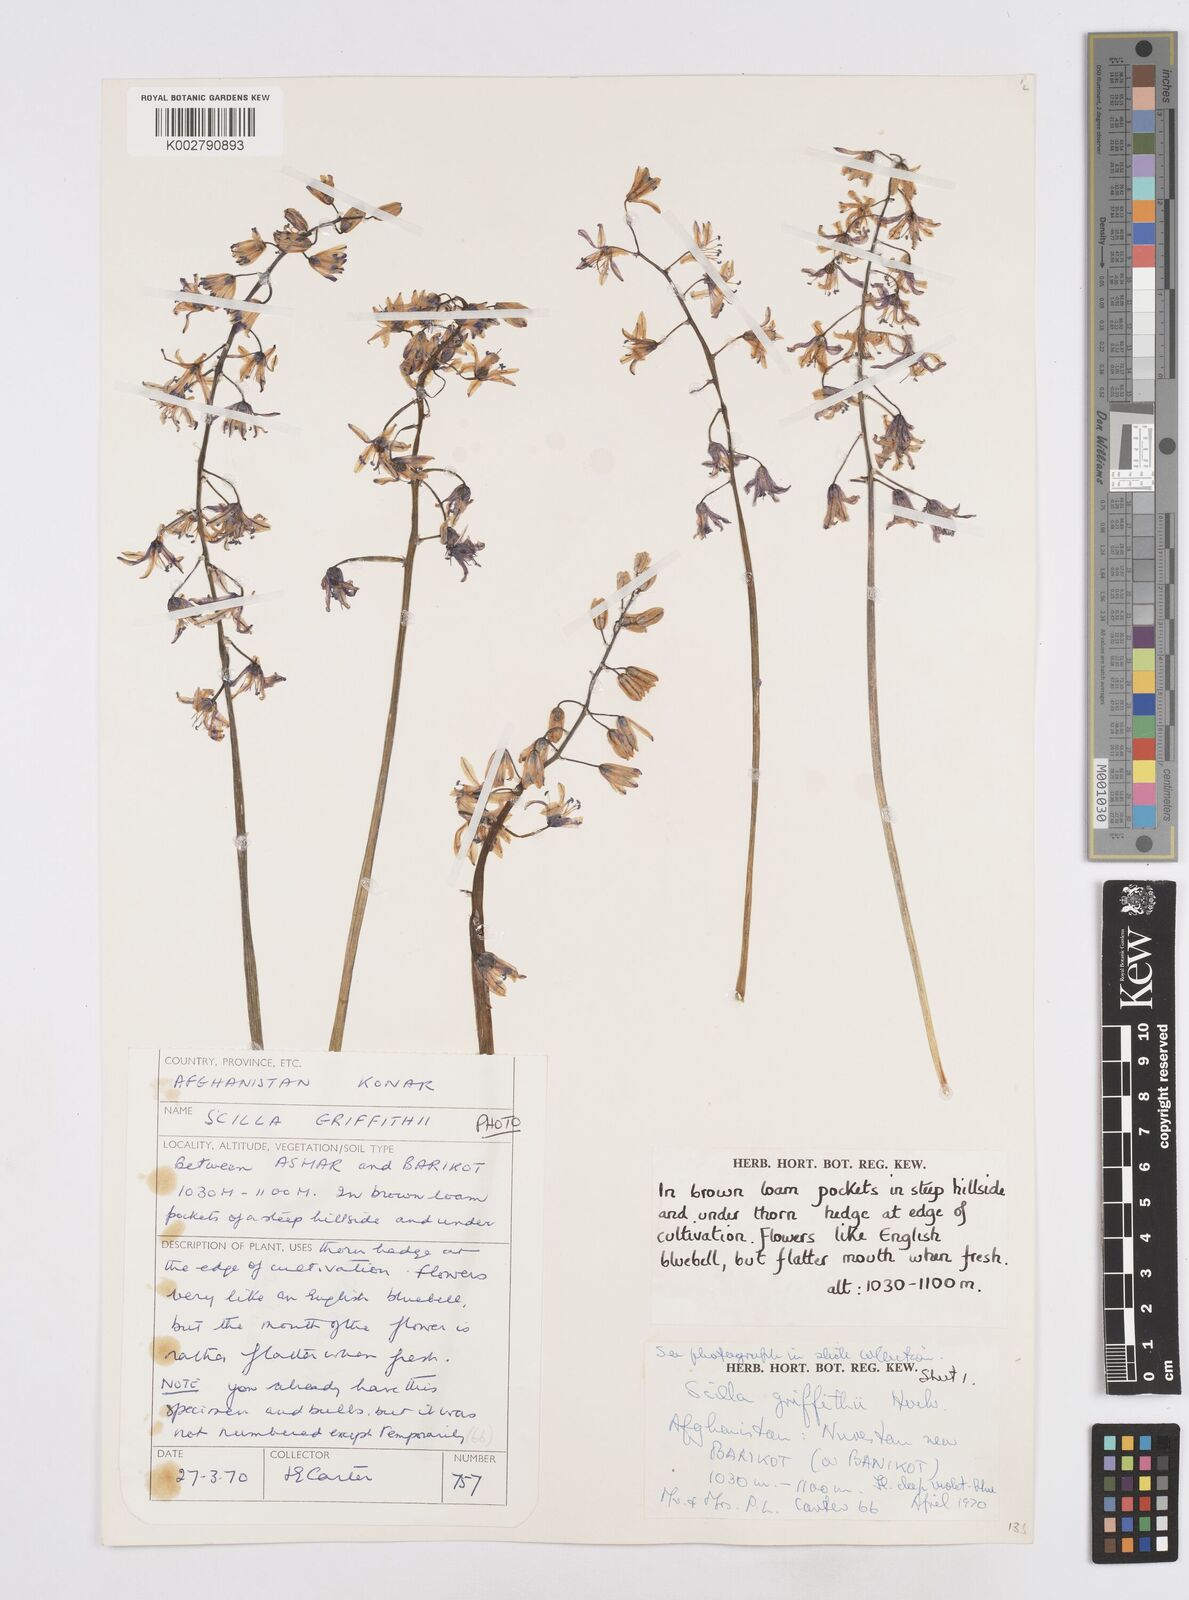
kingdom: Plantae
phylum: Tracheophyta
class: Liliopsida
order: Asparagales
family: Asparagaceae
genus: Fessia
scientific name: Fessia purpurea
